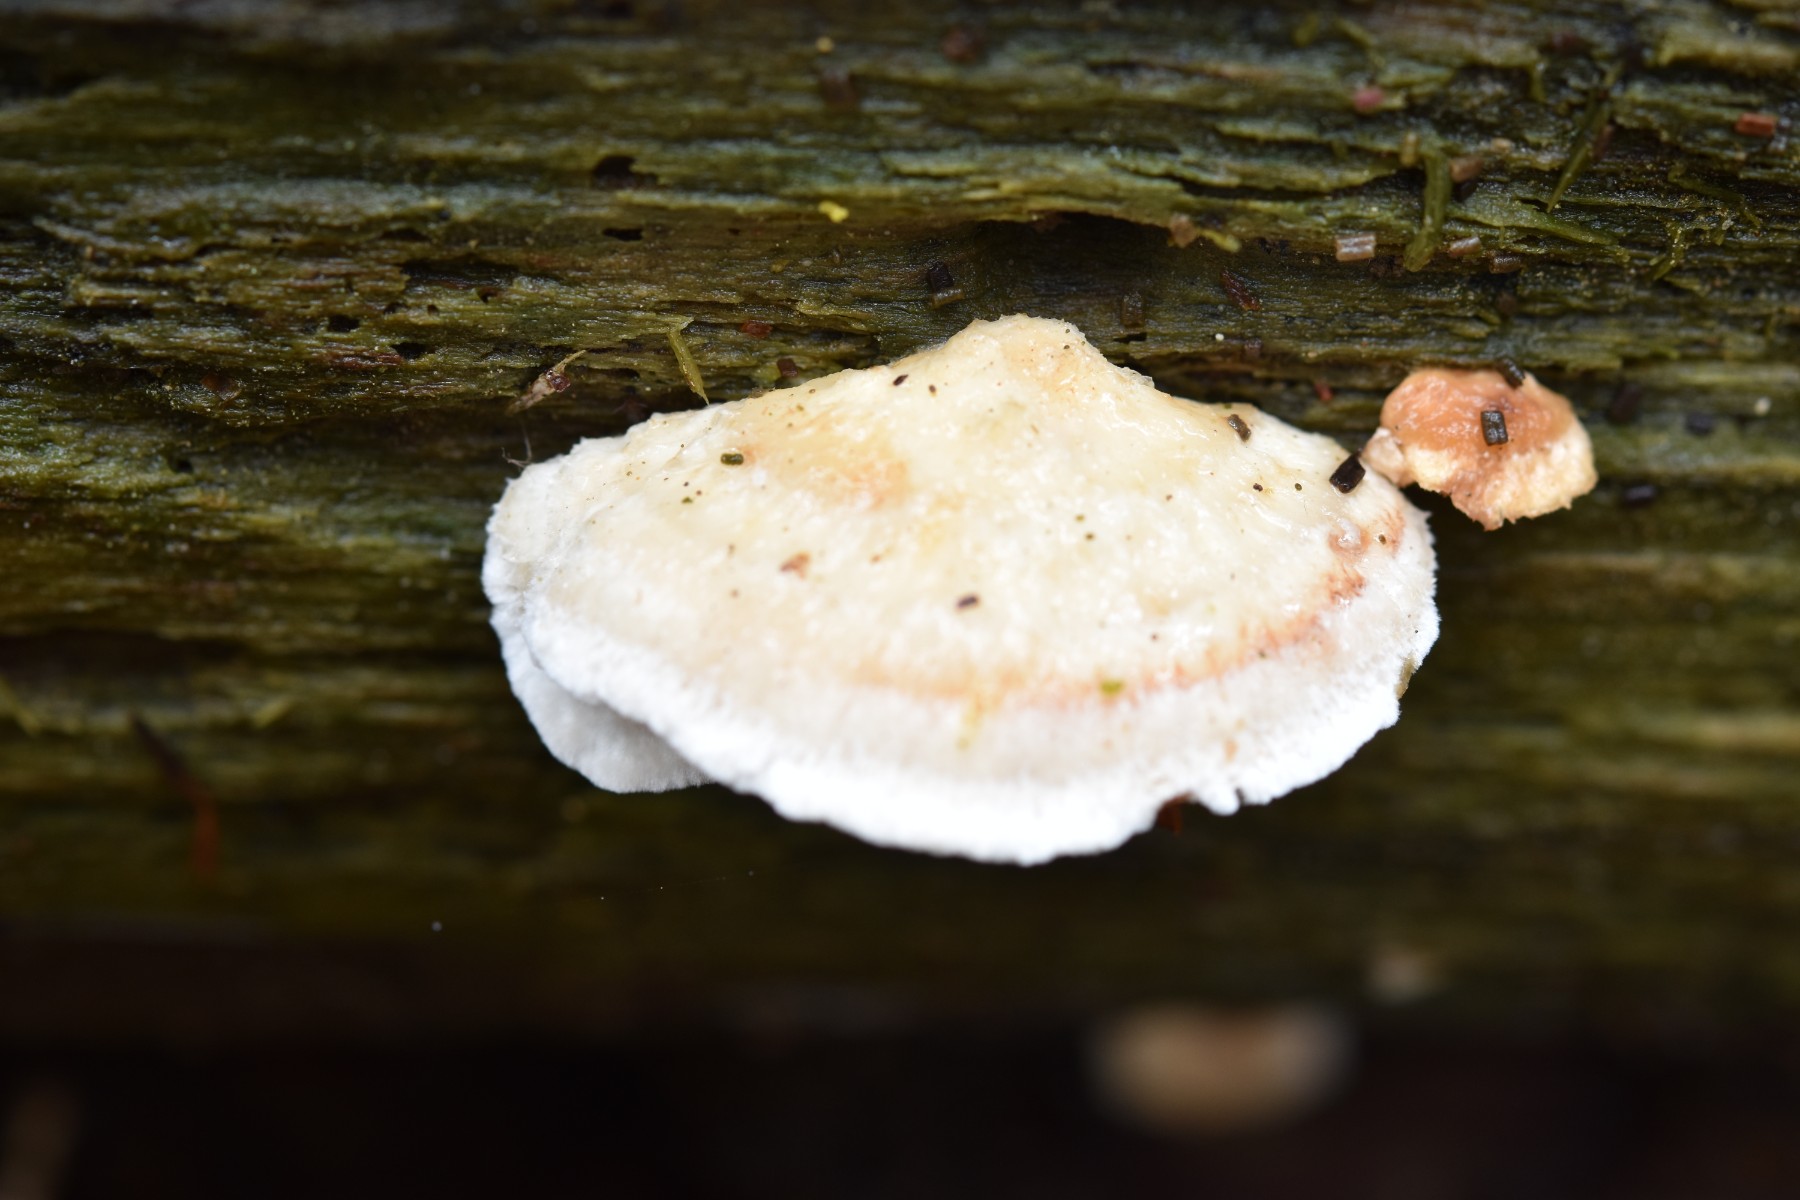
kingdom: Fungi
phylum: Basidiomycota
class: Agaricomycetes
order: Polyporales
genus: Fuscopostia
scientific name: Fuscopostia fragilis
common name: brunende kødporesvamp
